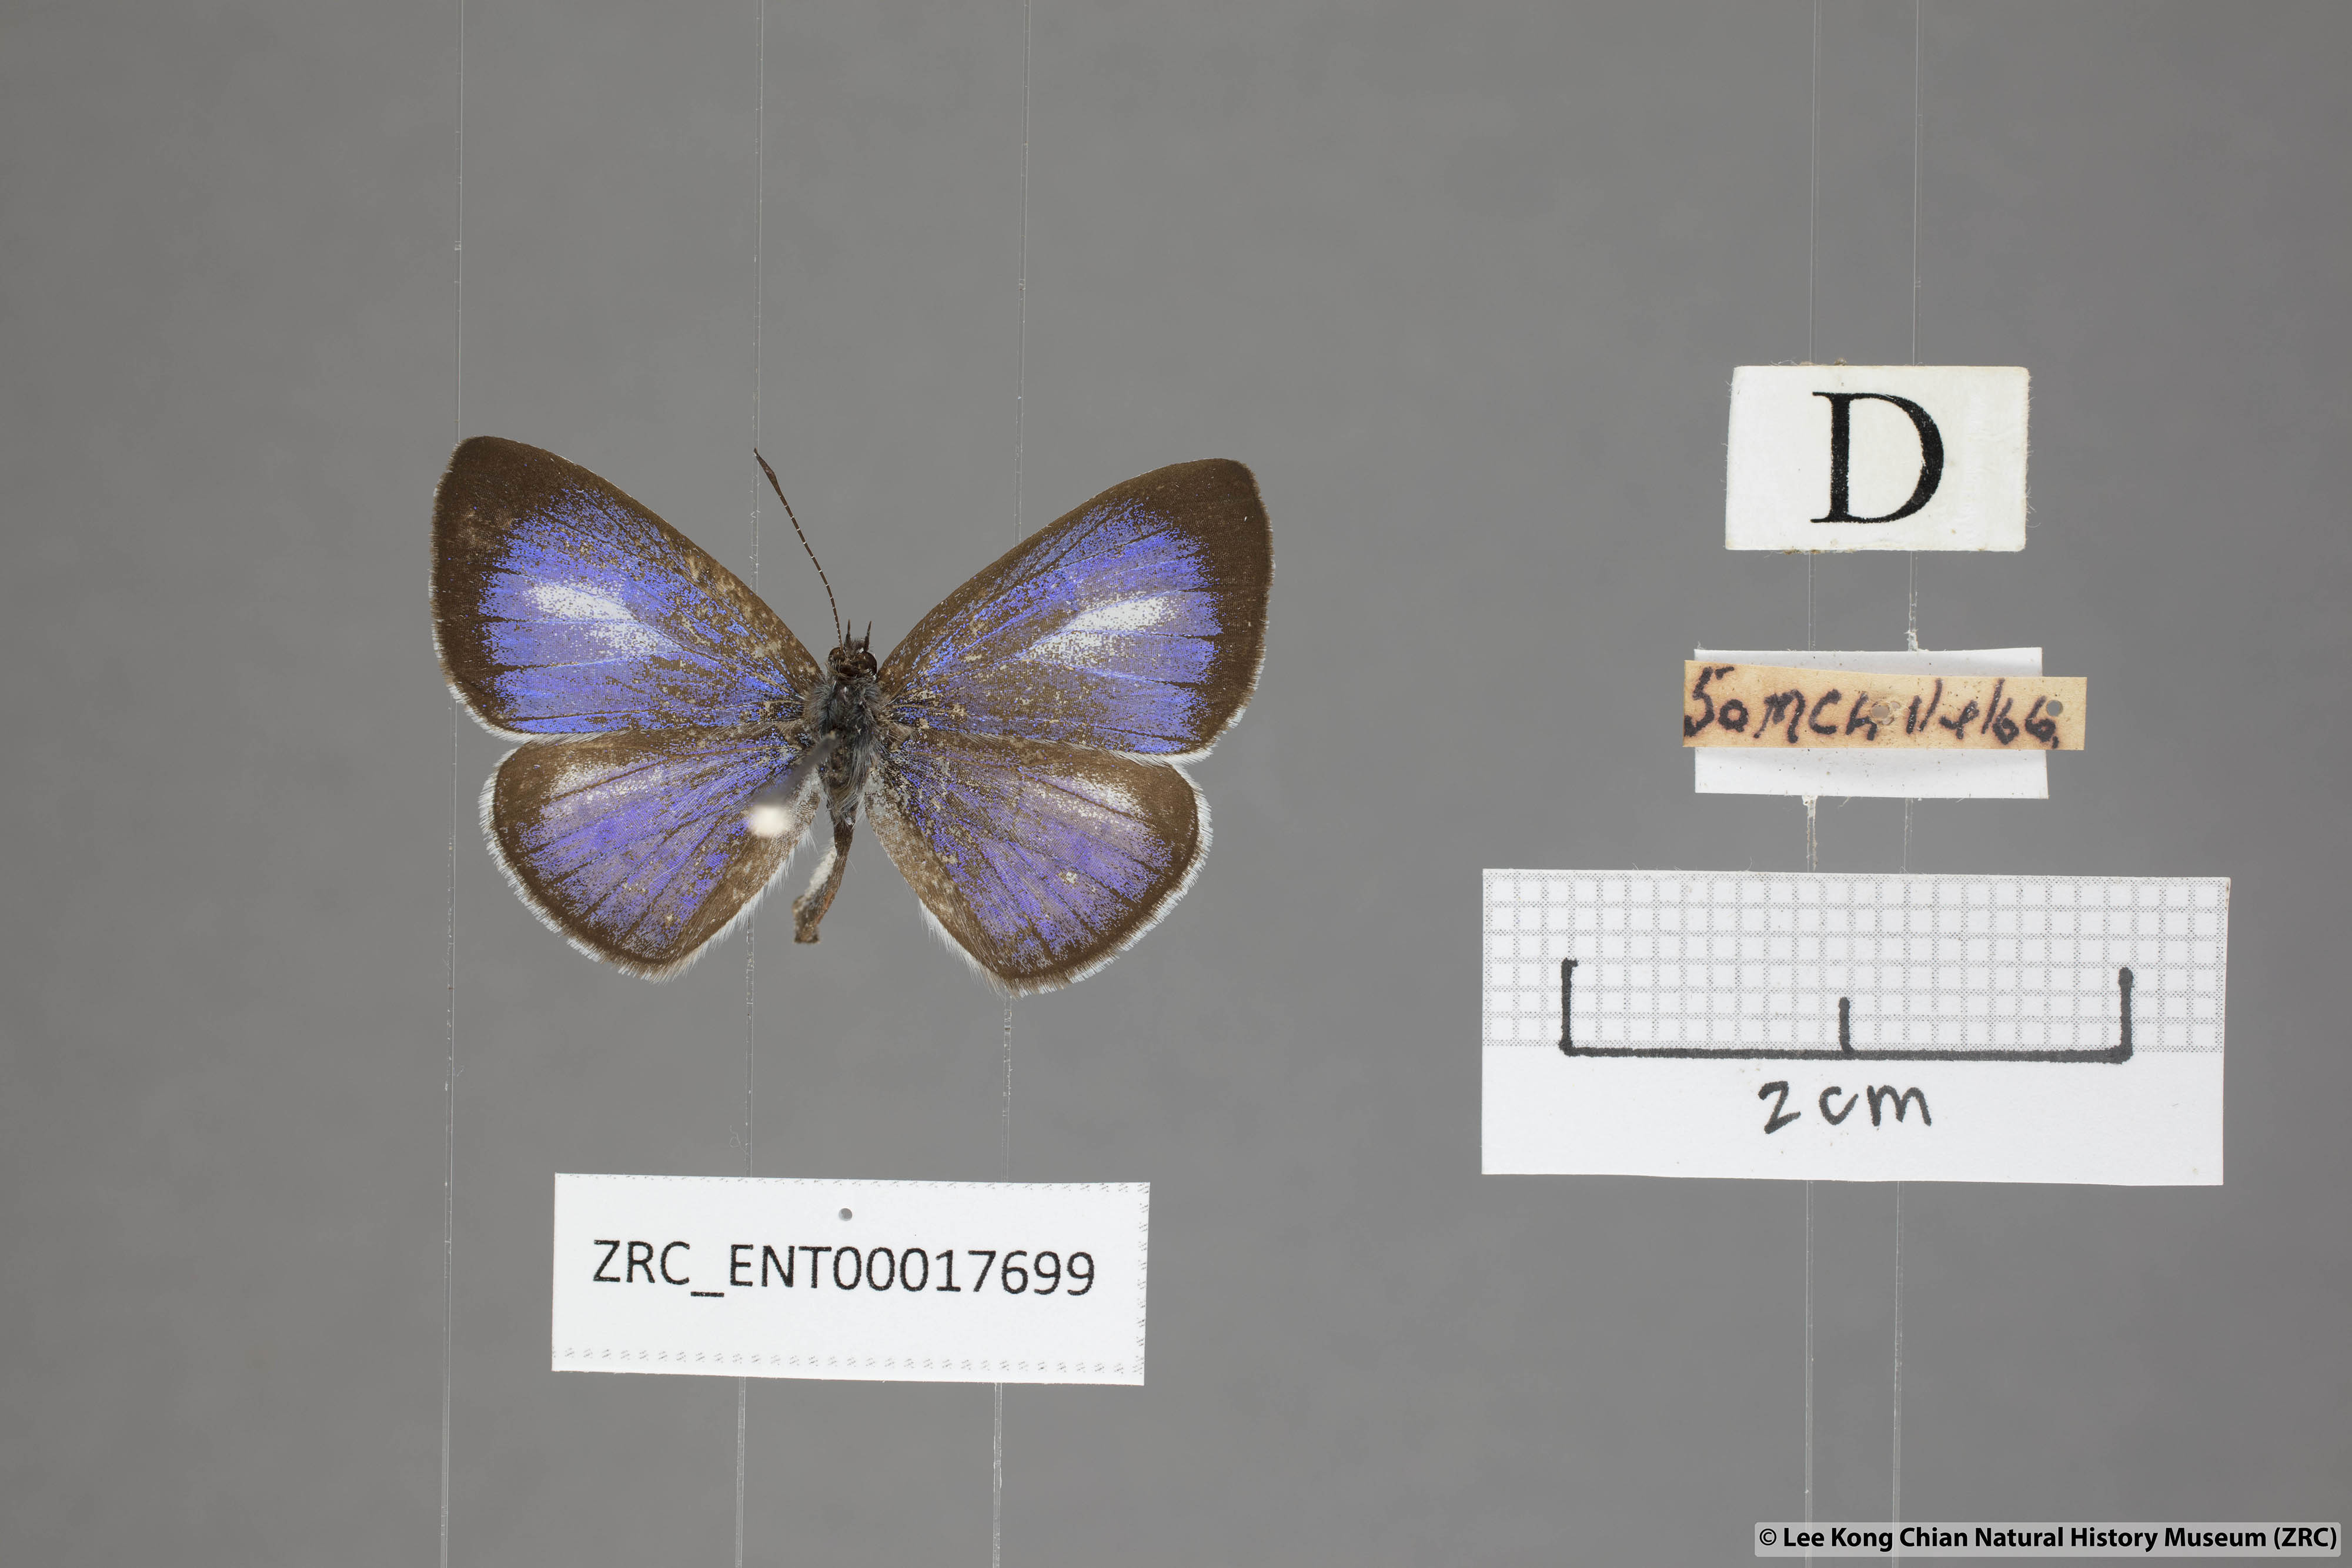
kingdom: Animalia
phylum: Arthropoda
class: Insecta
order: Lepidoptera
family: Lycaenidae
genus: Lycaenopsis
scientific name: Lycaenopsis marginata
